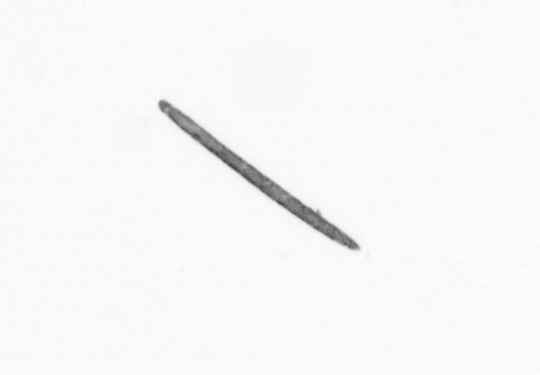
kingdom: Chromista
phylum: Ochrophyta
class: Bacillariophyceae
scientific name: Bacillariophyceae
